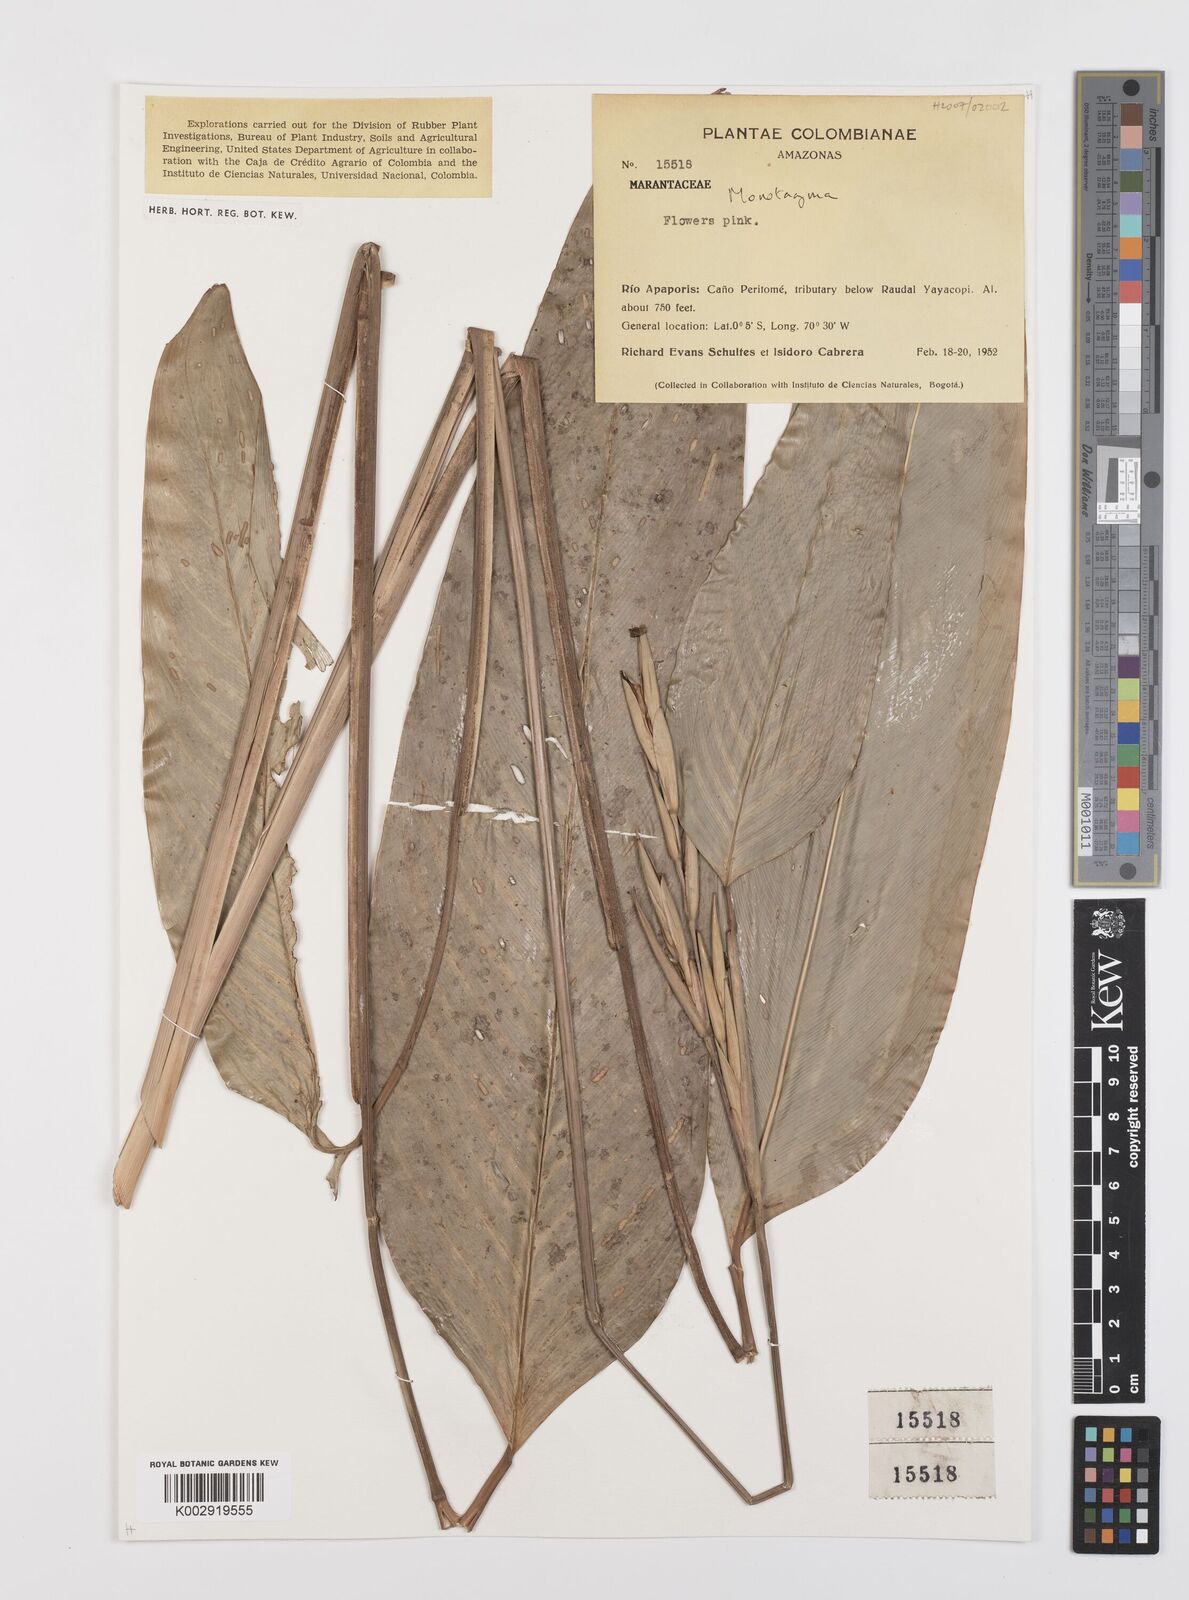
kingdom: Plantae
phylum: Tracheophyta
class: Liliopsida
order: Zingiberales
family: Marantaceae
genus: Monotagma
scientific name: Monotagma
